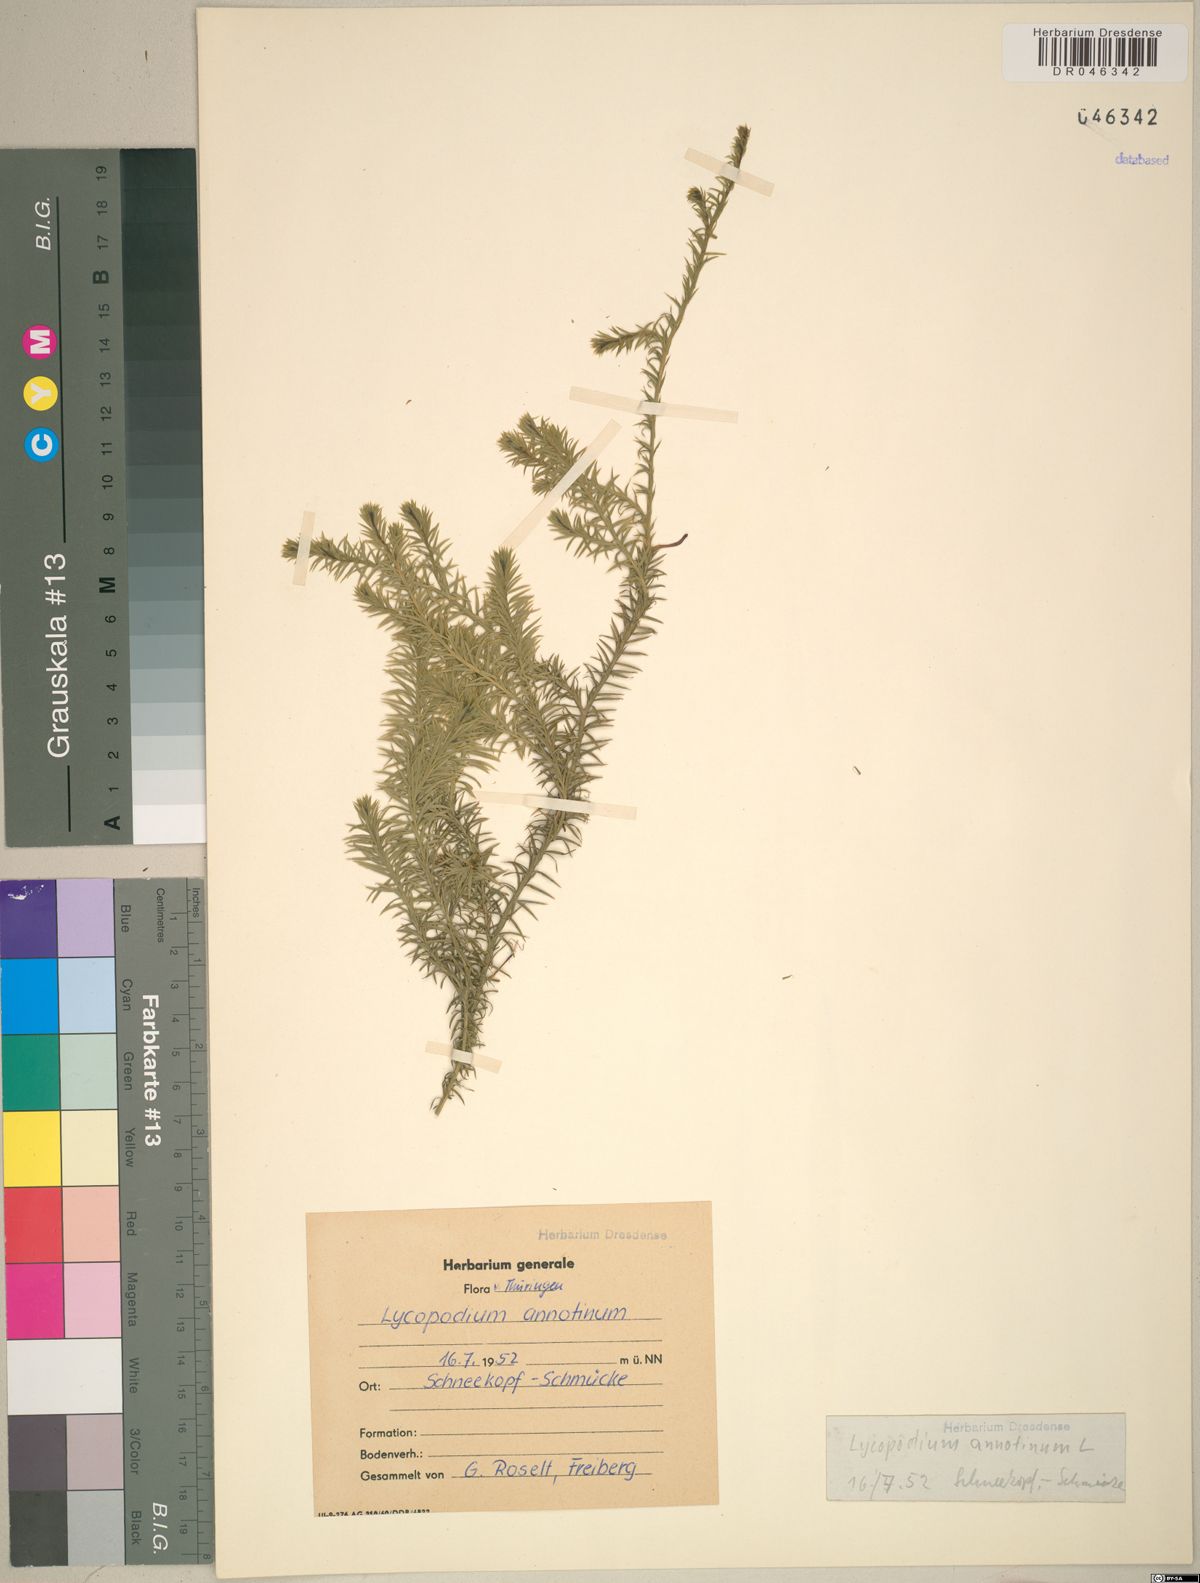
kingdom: Plantae
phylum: Tracheophyta
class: Lycopodiopsida
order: Lycopodiales
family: Lycopodiaceae
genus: Spinulum
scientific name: Spinulum annotinum
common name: Interrupted club-moss
